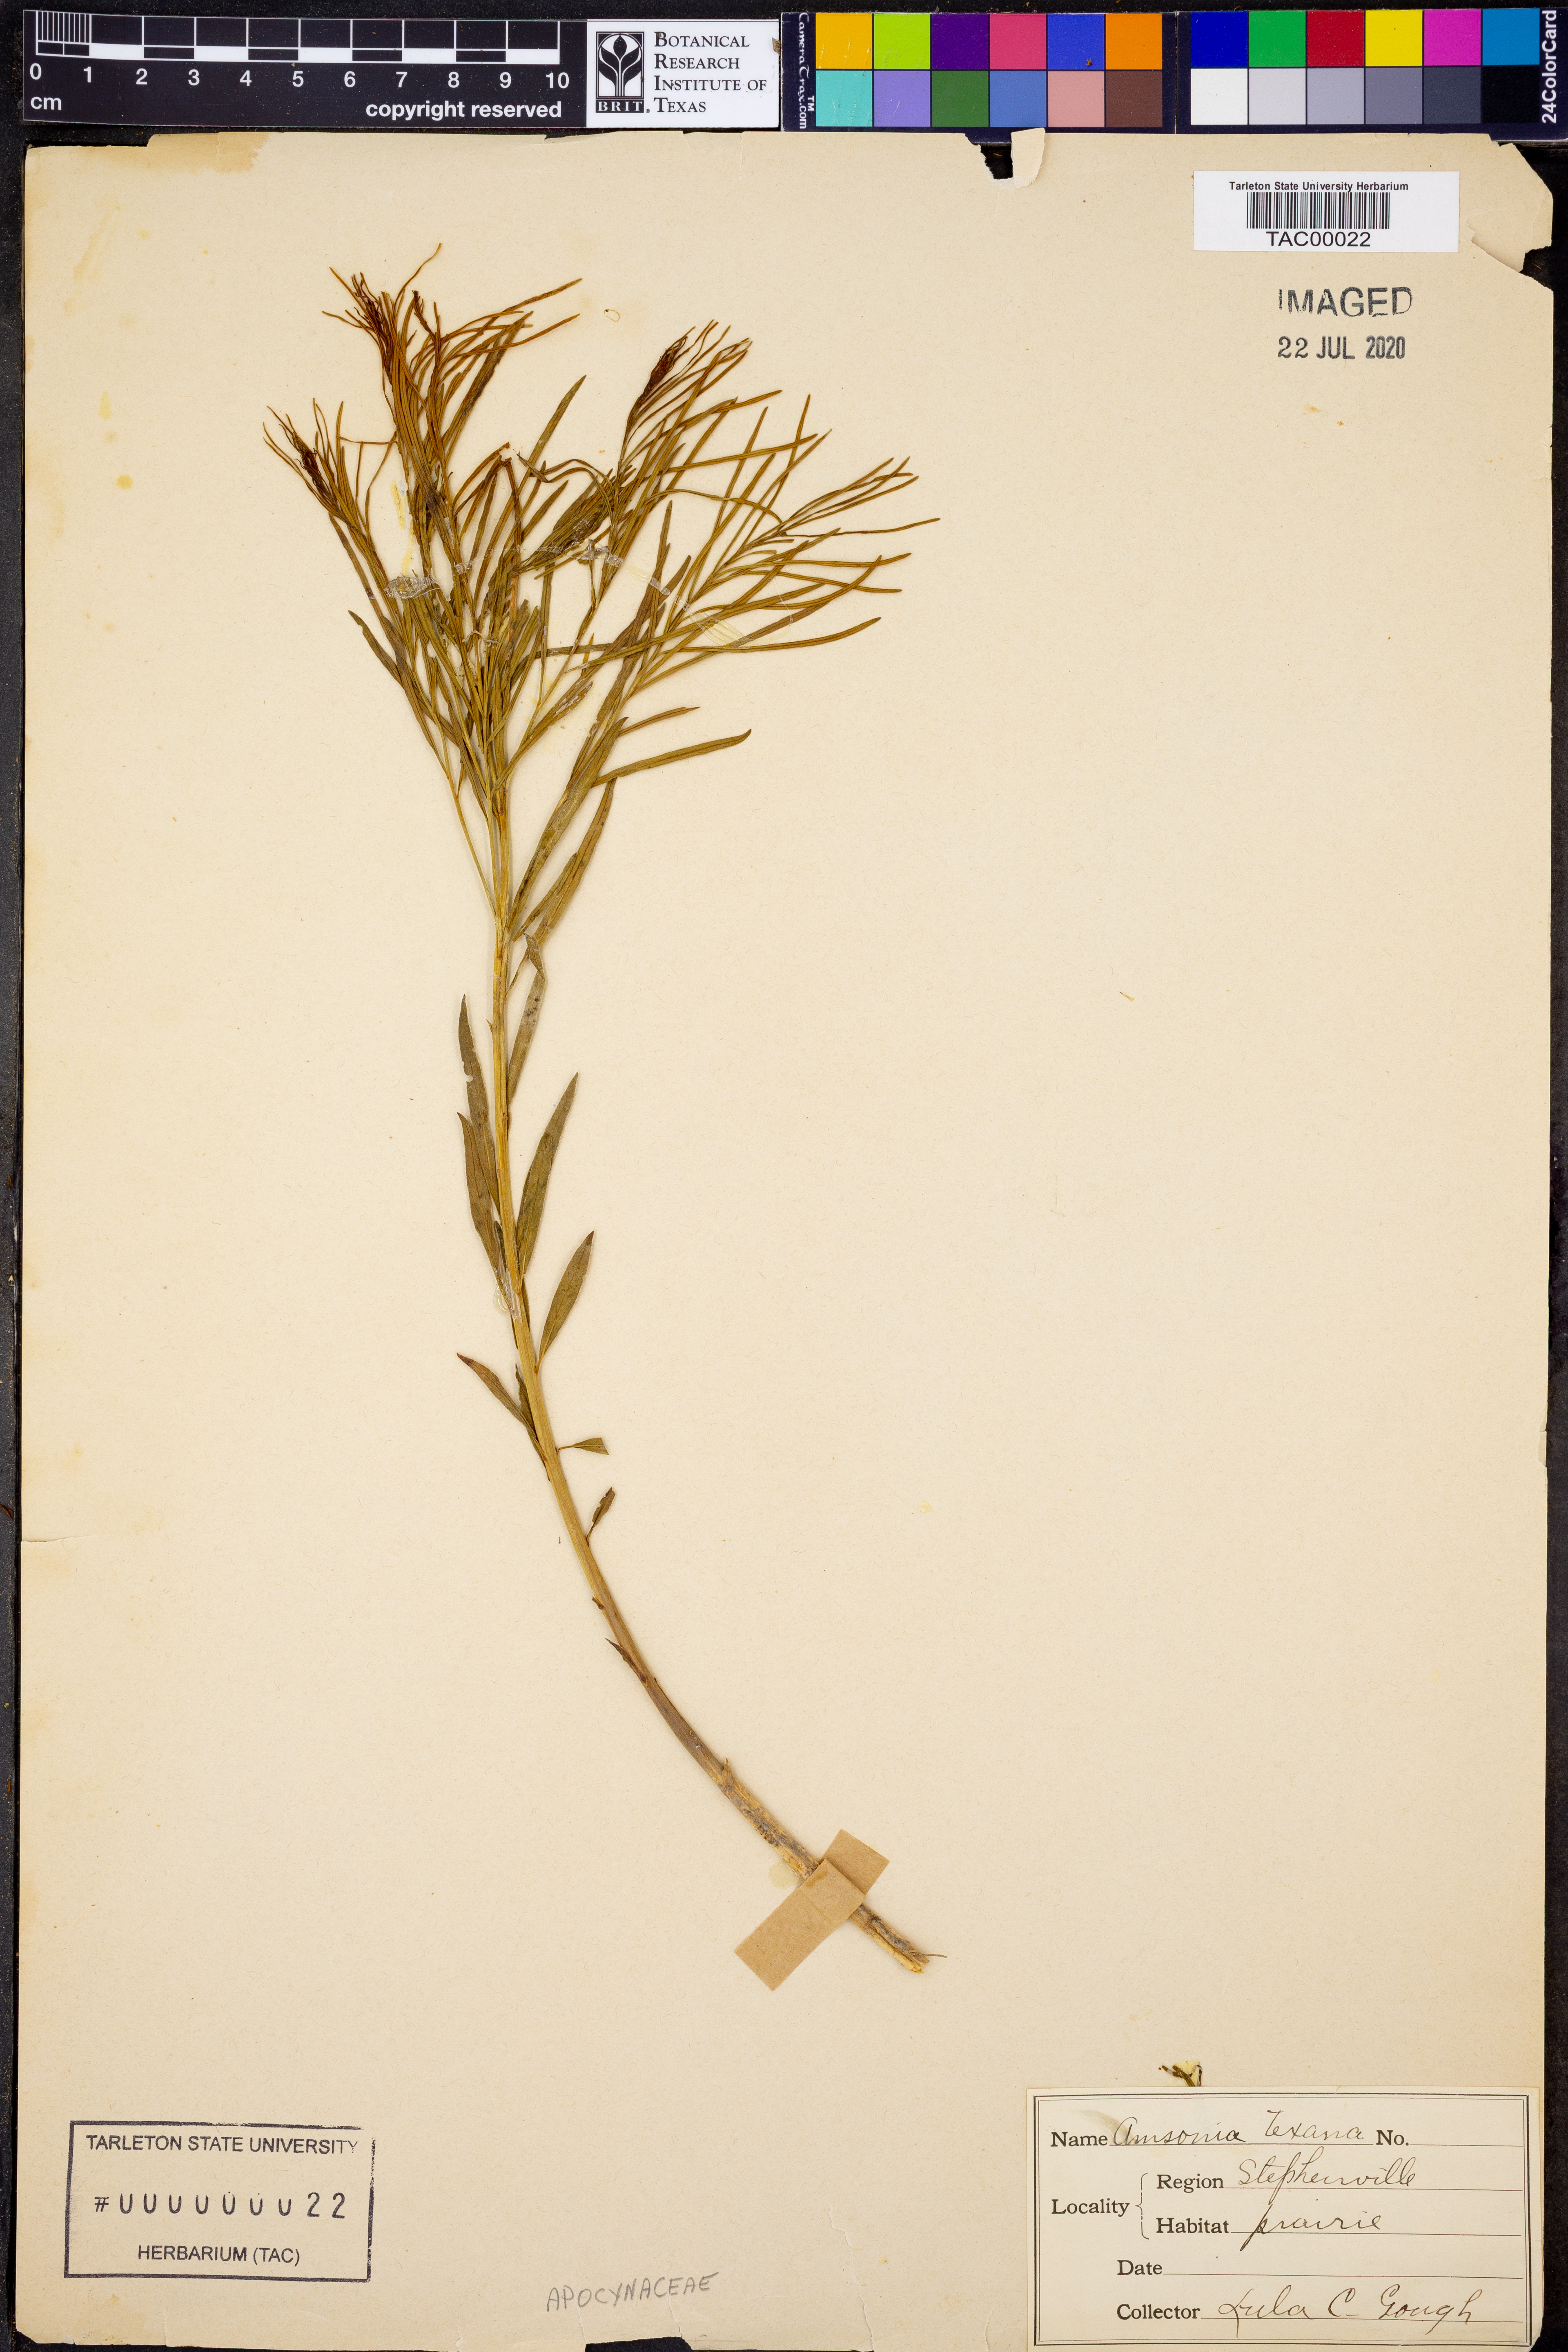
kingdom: Plantae
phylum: Tracheophyta
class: Magnoliopsida
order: Gentianales
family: Apocynaceae
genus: Amsonia
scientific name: Amsonia ciliata
